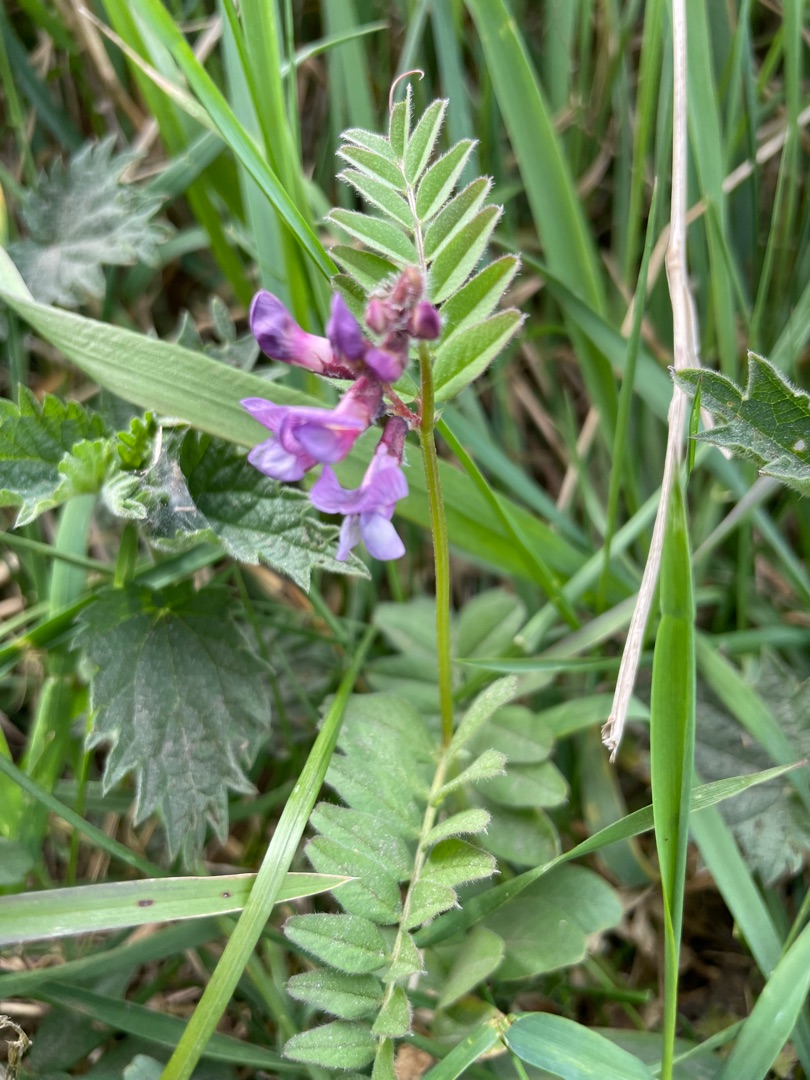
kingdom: Plantae
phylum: Tracheophyta
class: Magnoliopsida
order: Fabales
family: Fabaceae
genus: Vicia
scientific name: Vicia sepium
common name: Gærde-vikke
